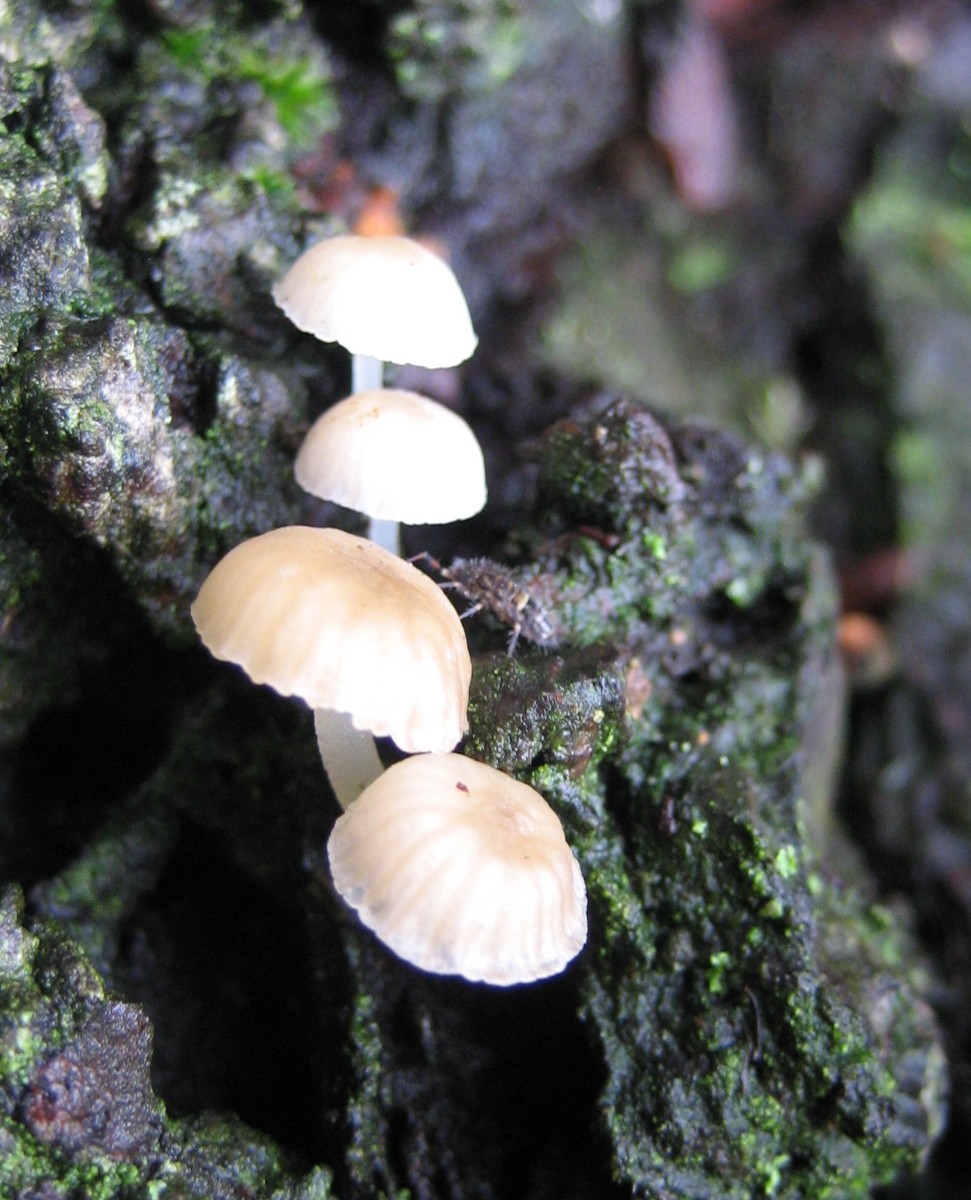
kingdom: Fungi
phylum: Basidiomycota
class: Agaricomycetes
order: Agaricales
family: Mycenaceae
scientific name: Mycenaceae
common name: huesvampfamilien
